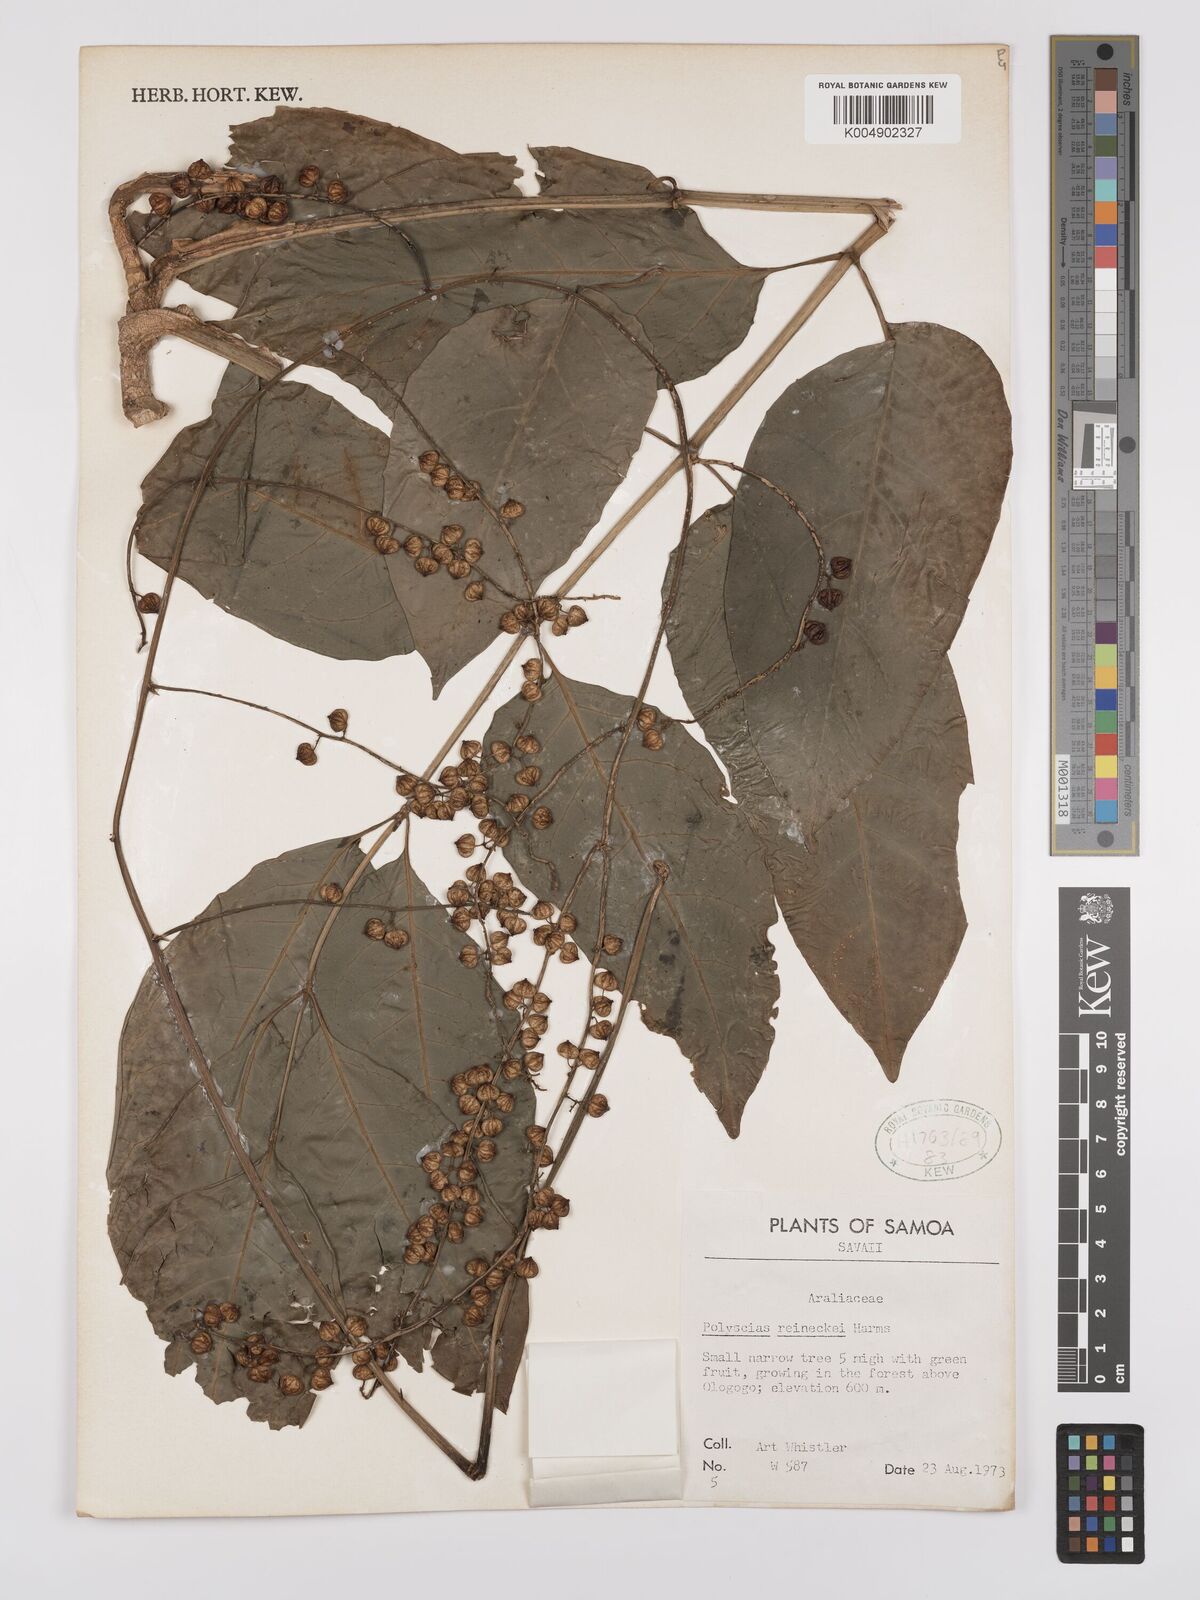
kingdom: Plantae
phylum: Tracheophyta
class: Magnoliopsida
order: Apiales
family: Araliaceae
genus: Polyscias
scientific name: Polyscias reineckei
